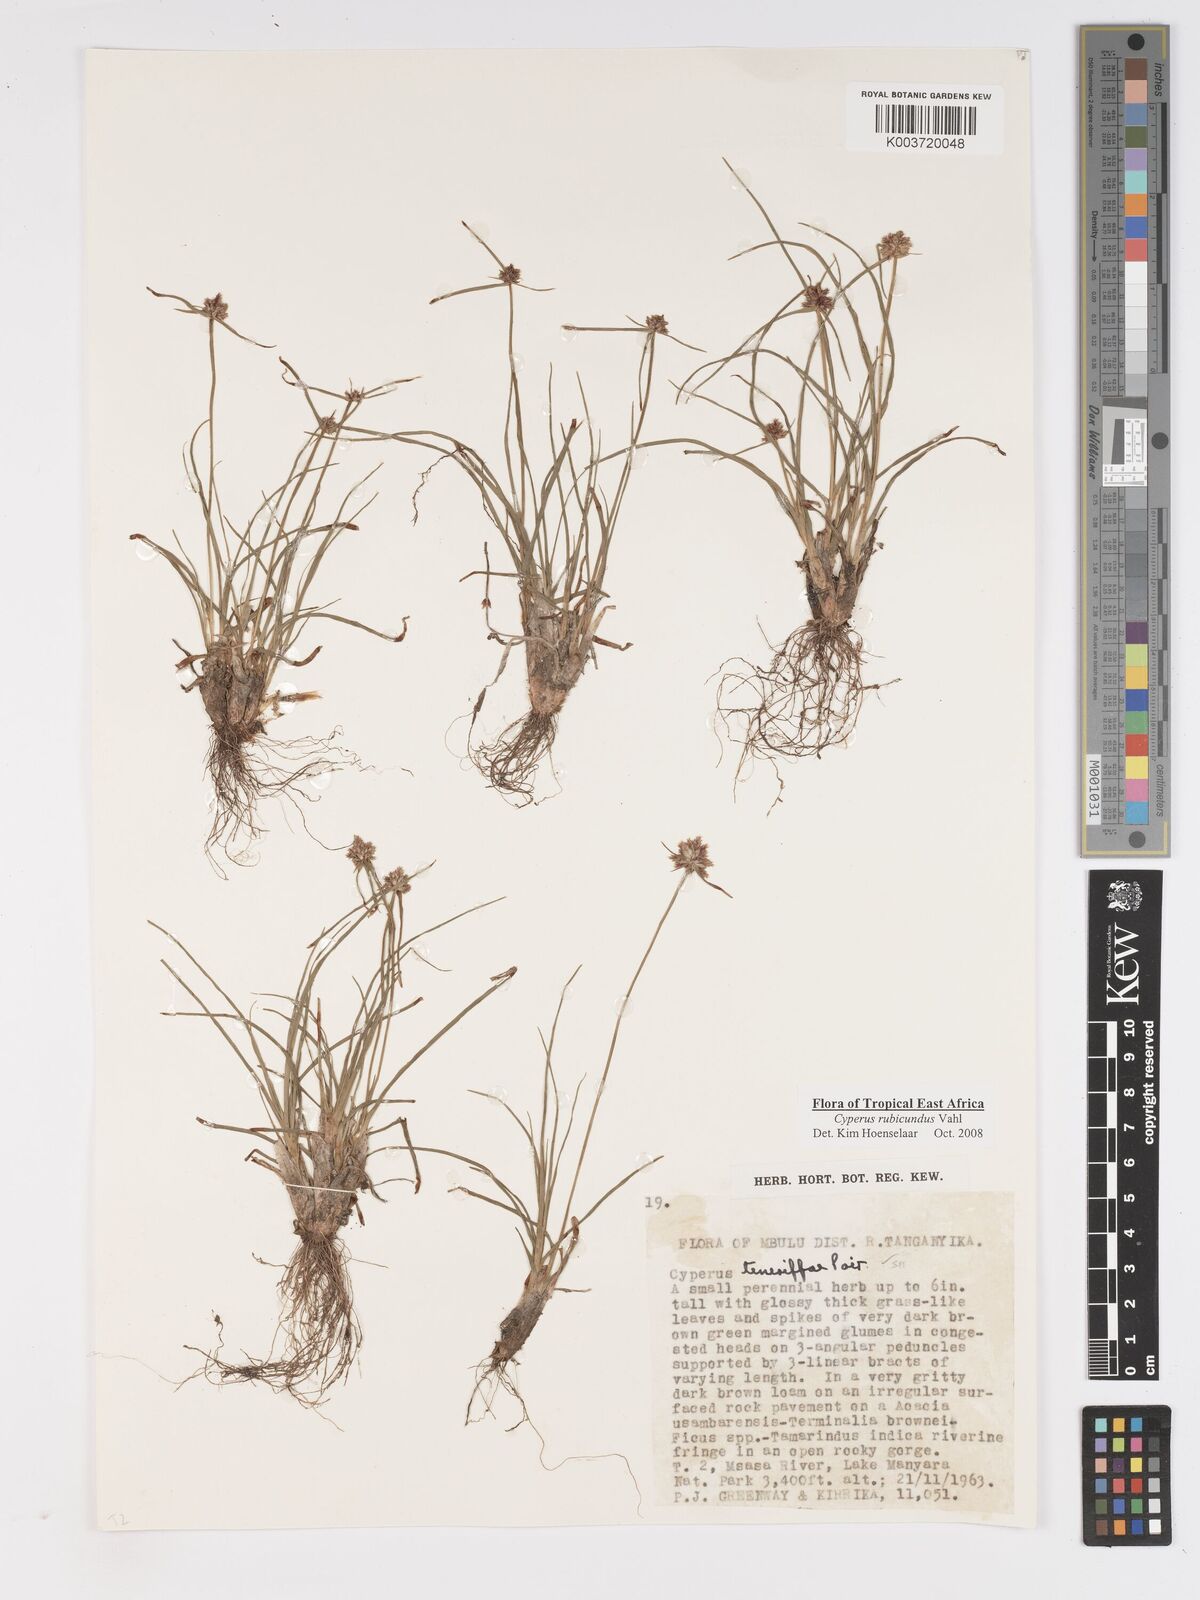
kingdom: Plantae
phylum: Tracheophyta
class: Liliopsida
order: Poales
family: Cyperaceae
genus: Cyperus
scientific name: Cyperus rubicundus
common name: Coco-grass
